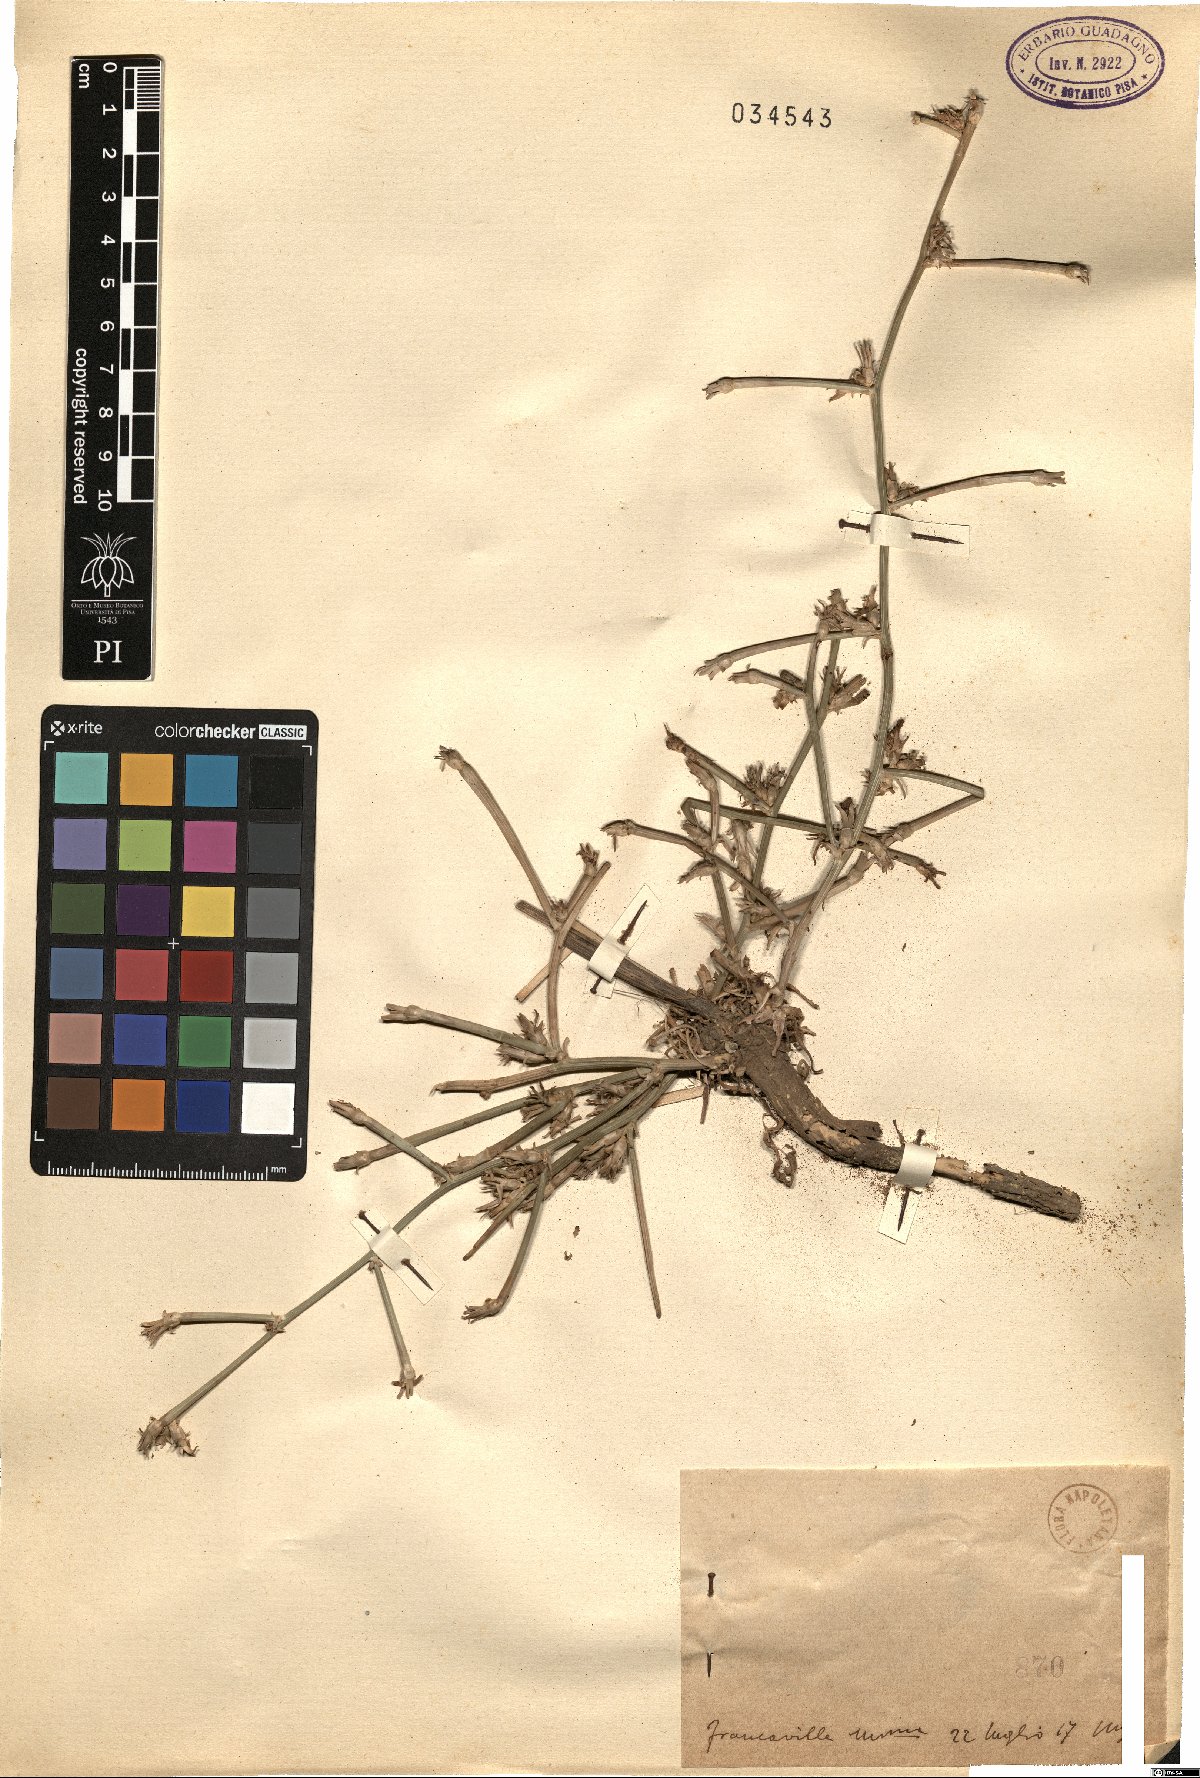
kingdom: Plantae
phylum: Tracheophyta
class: Magnoliopsida
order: Asterales
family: Asteraceae
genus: Cichorium
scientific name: Cichorium
